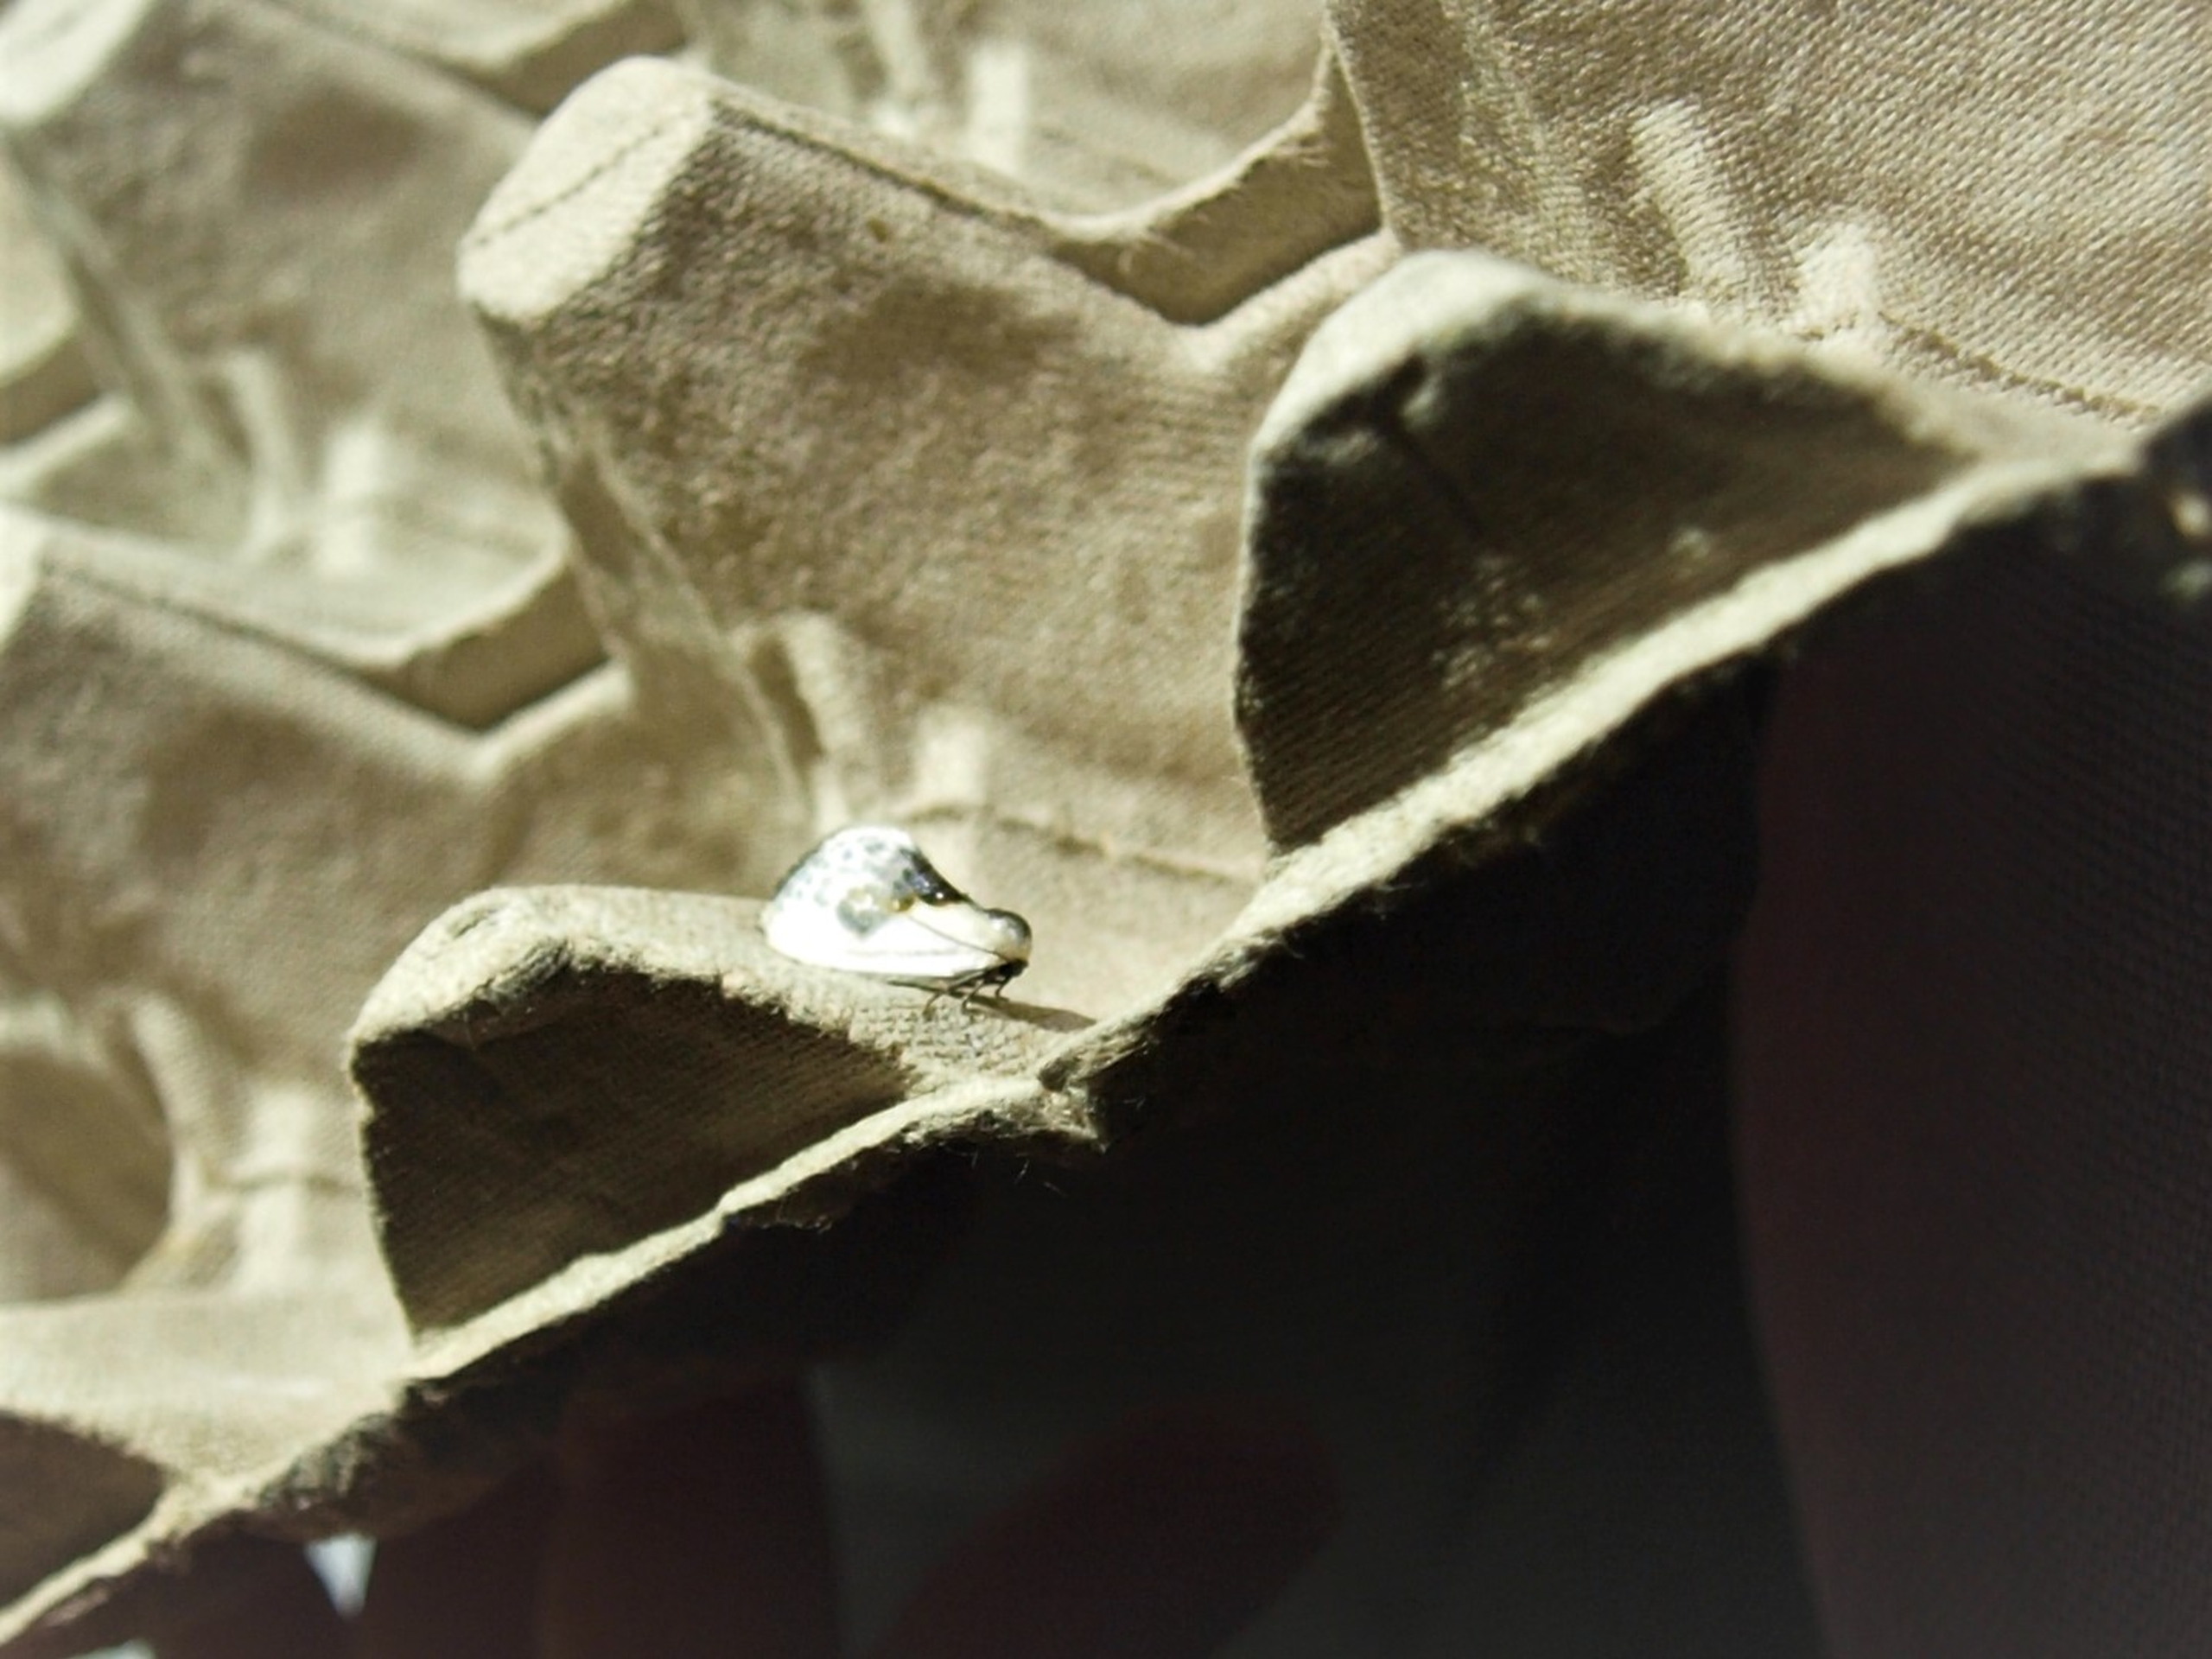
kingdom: Animalia
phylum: Arthropoda
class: Insecta
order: Lepidoptera
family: Drepanidae
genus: Cilix
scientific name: Cilix glaucata
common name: Silkevinge
